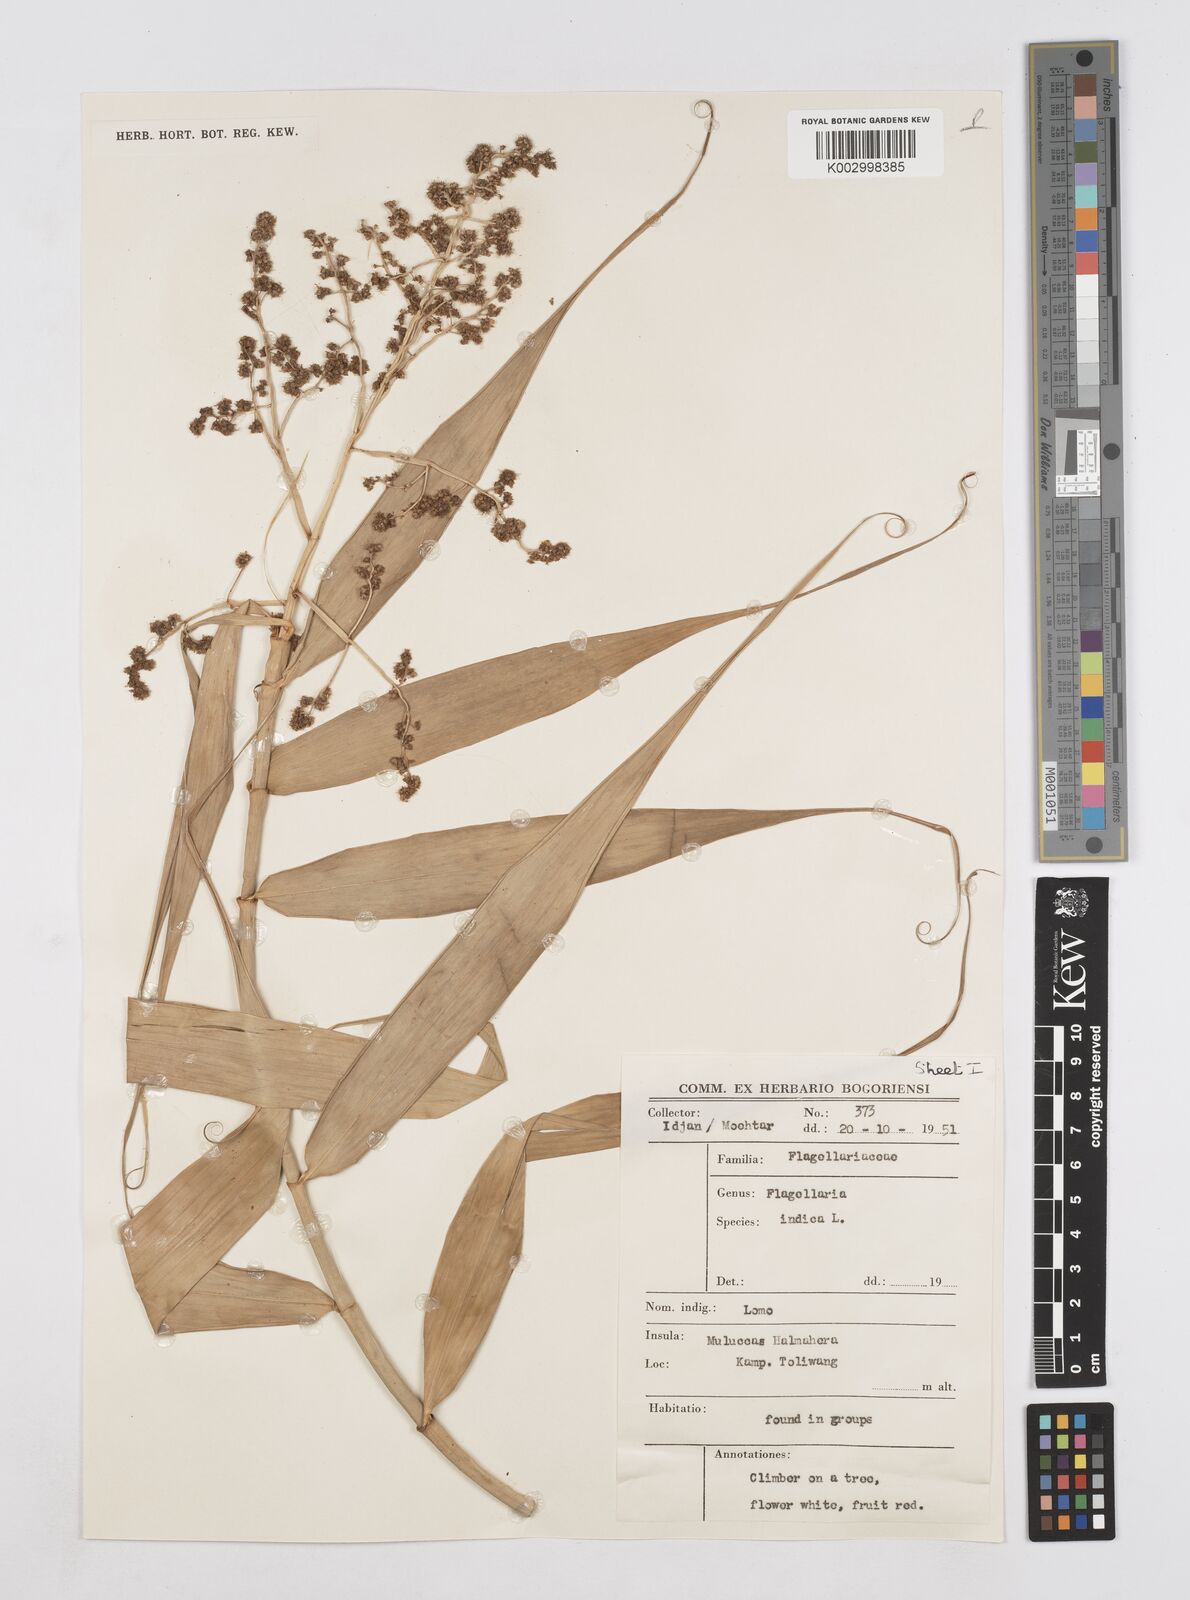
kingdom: Plantae
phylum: Tracheophyta
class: Liliopsida
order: Poales
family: Flagellariaceae
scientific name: Flagellariaceae
